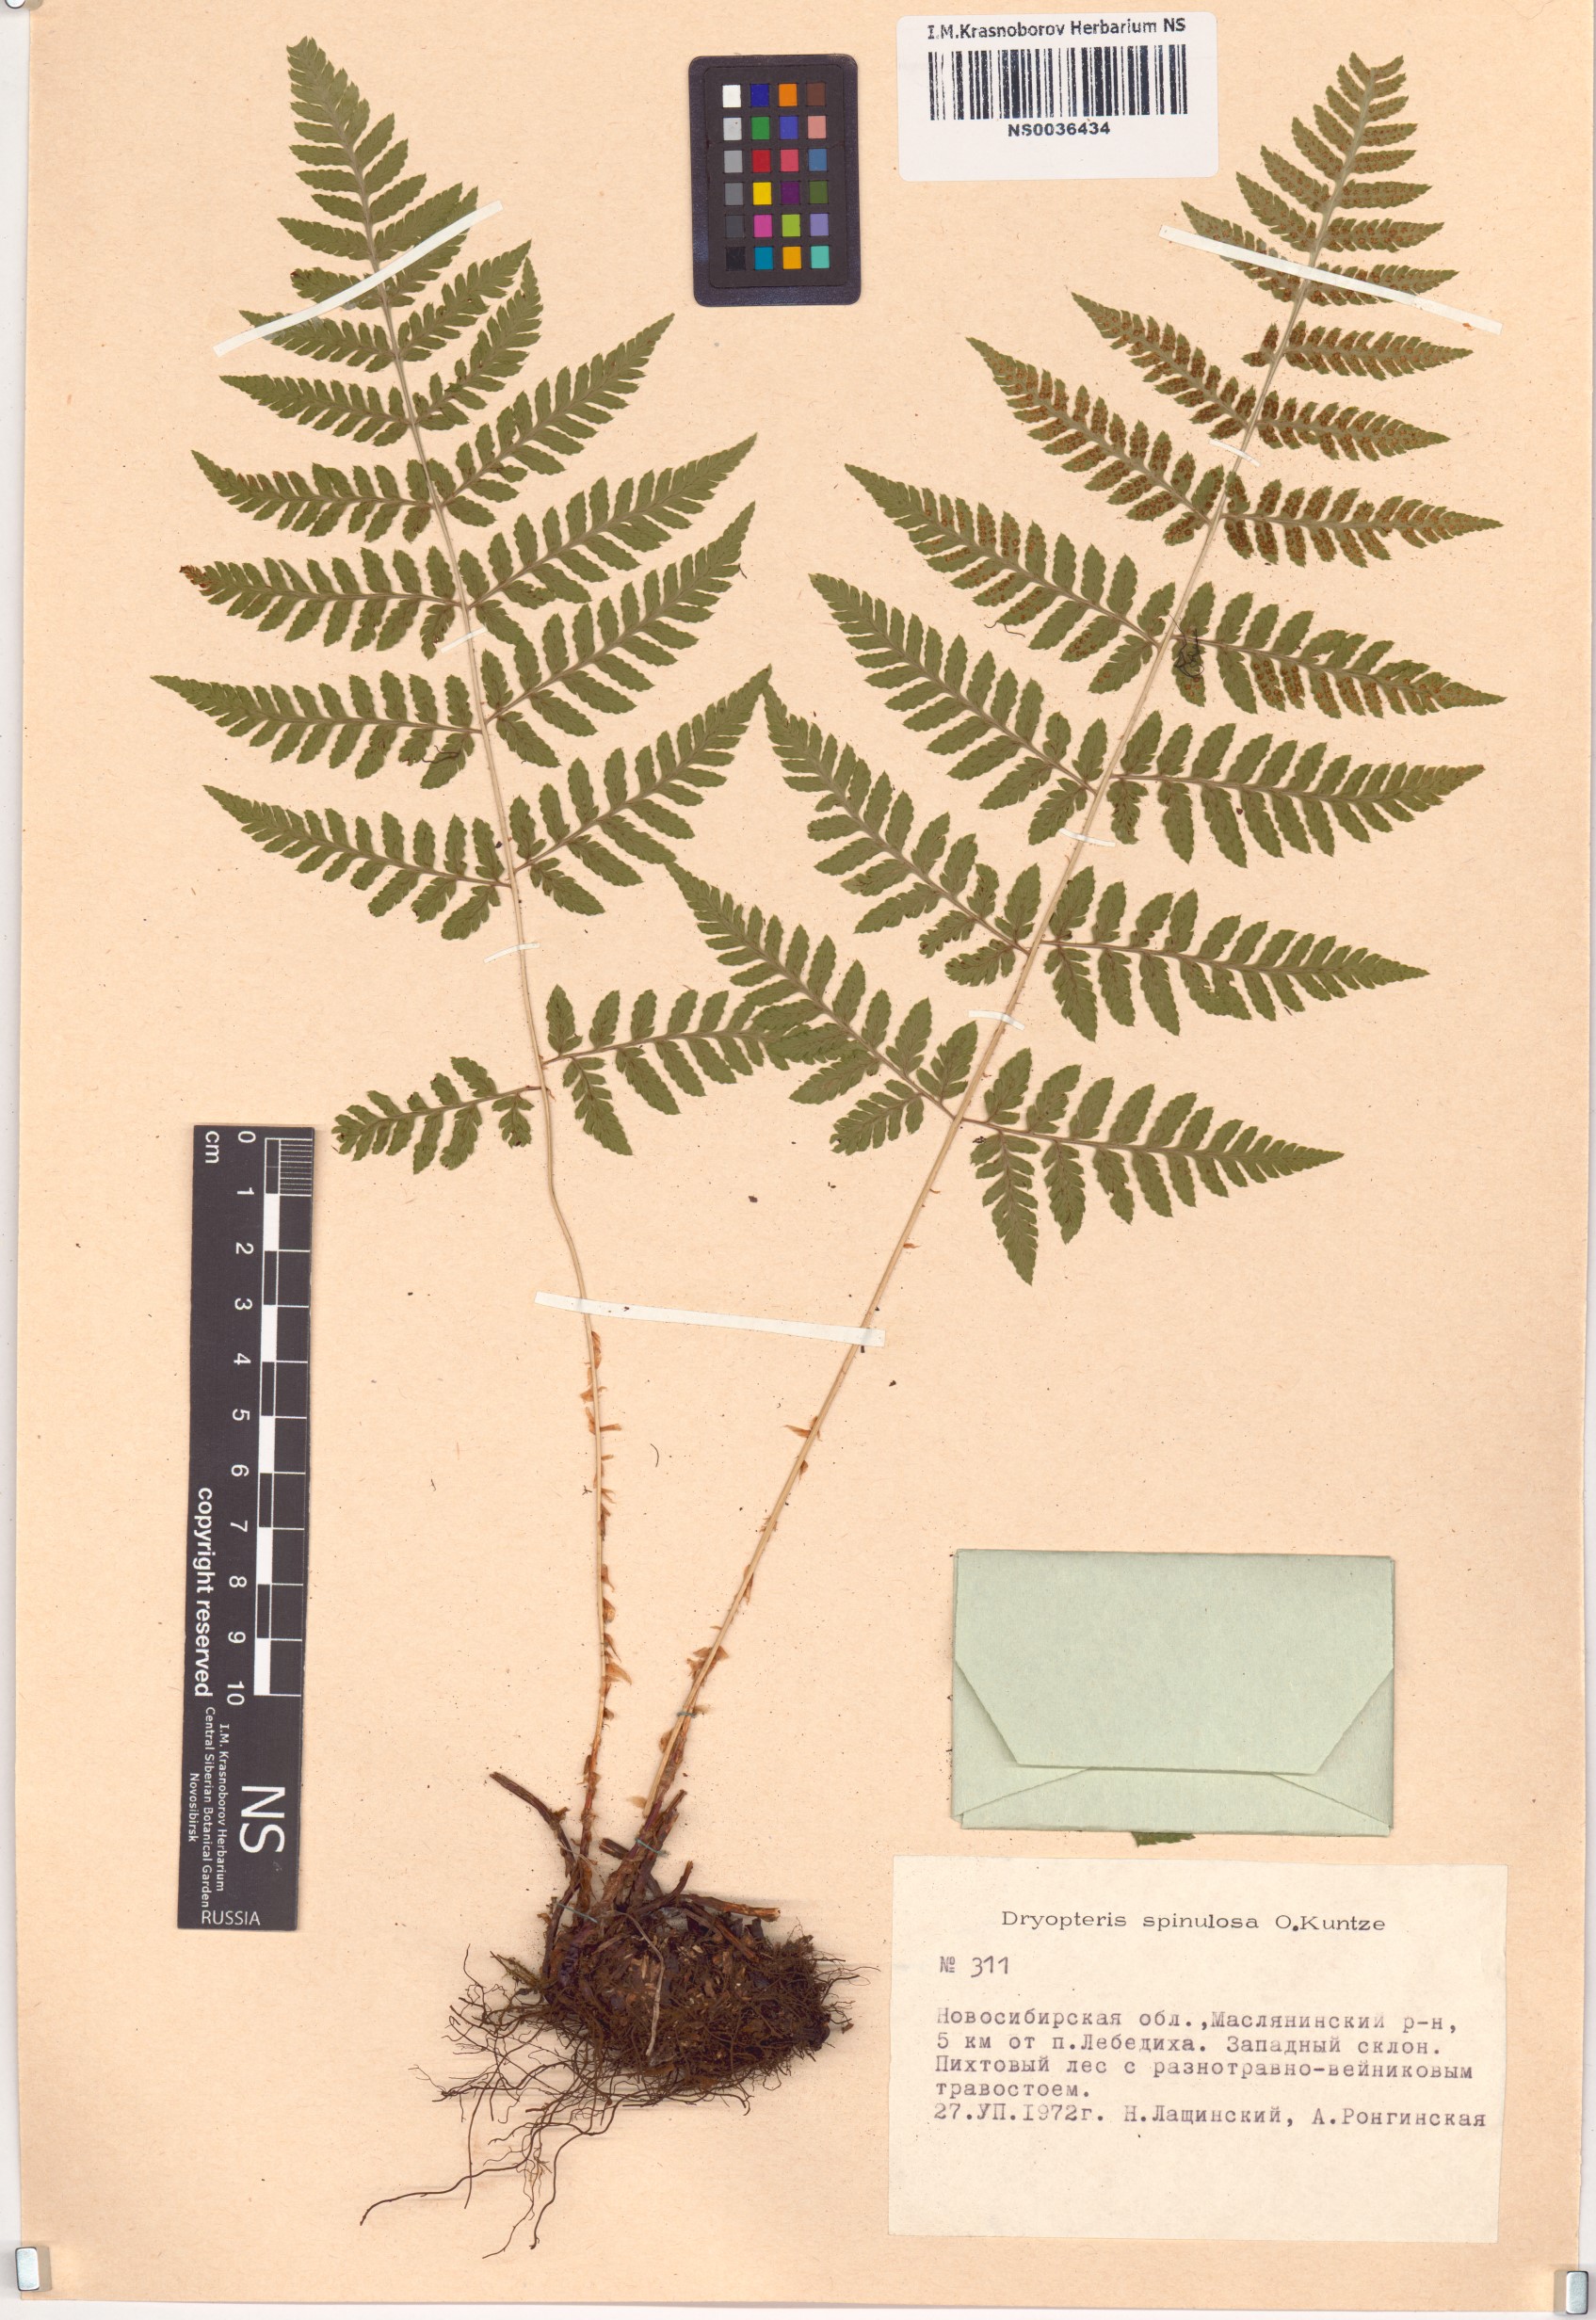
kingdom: Plantae
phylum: Tracheophyta
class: Polypodiopsida
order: Polypodiales
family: Dryopteridaceae
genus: Dryopteris
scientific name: Dryopteris carthusiana
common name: Narrow buckler-fern
